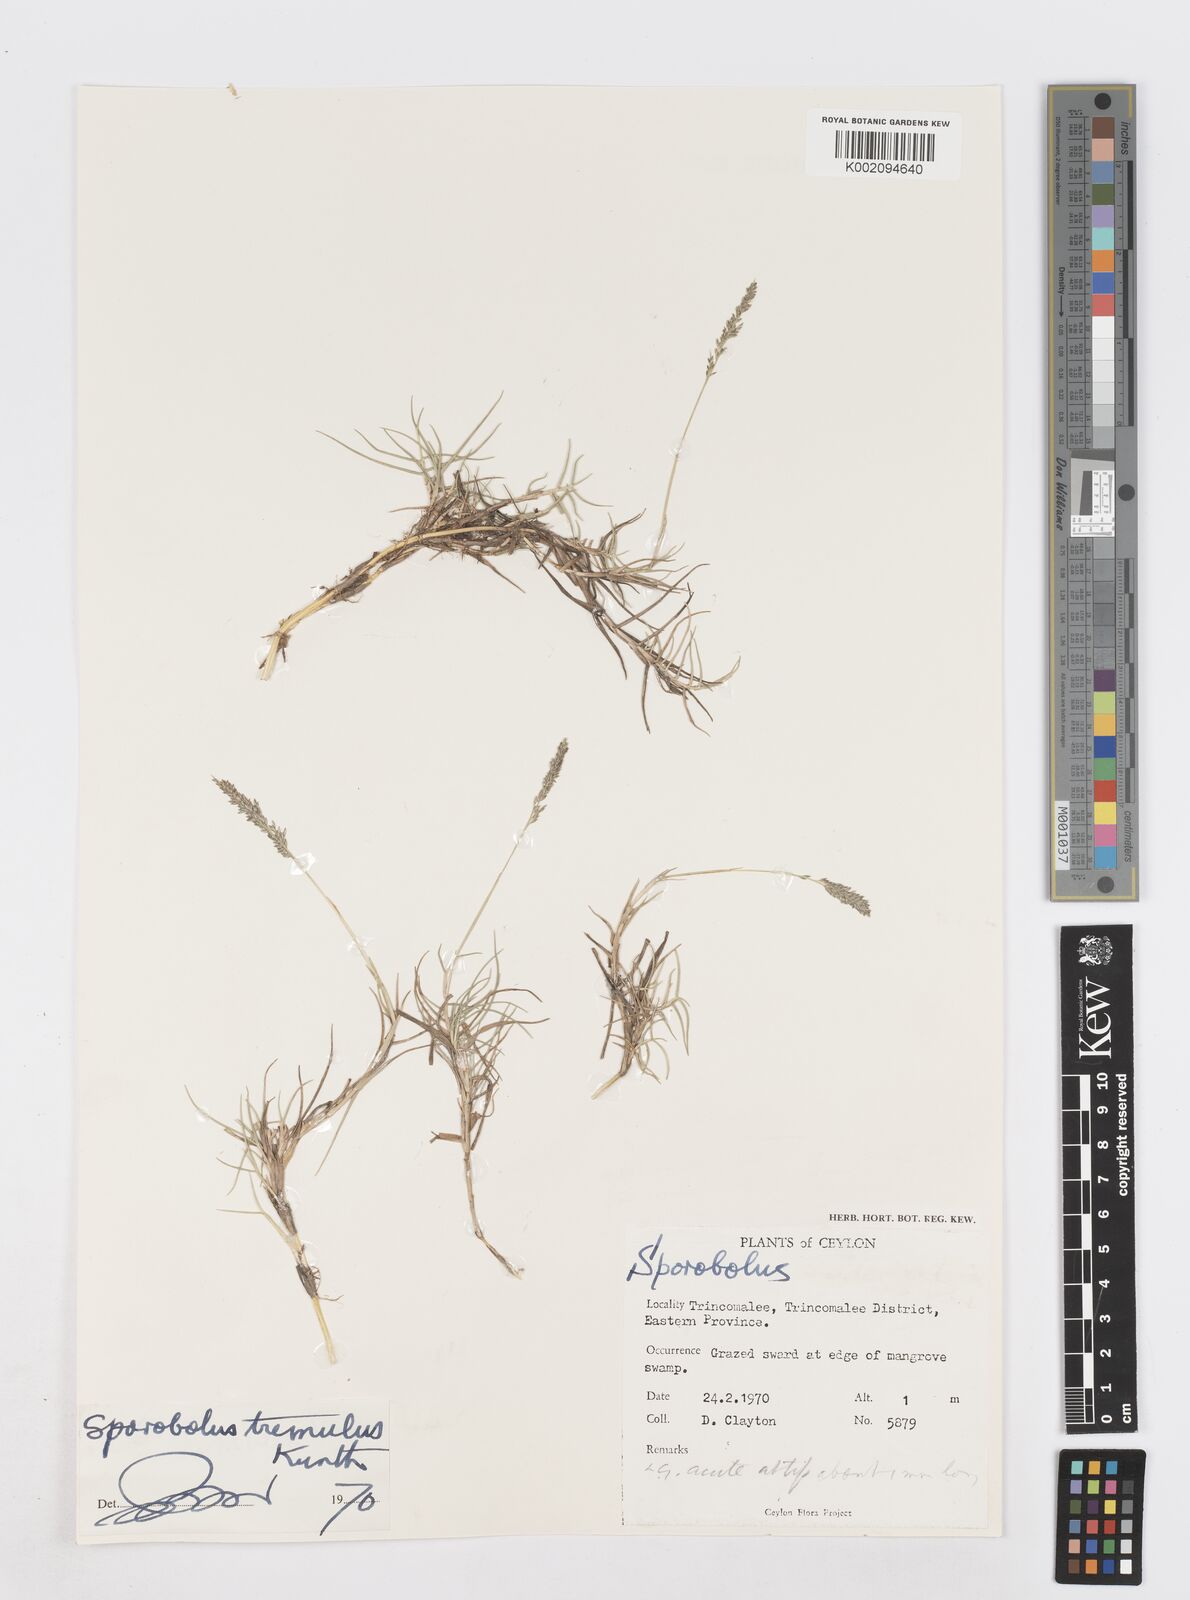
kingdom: Plantae
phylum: Tracheophyta
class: Liliopsida
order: Poales
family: Poaceae
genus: Sporobolus
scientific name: Sporobolus virginicus
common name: Beach dropseed
